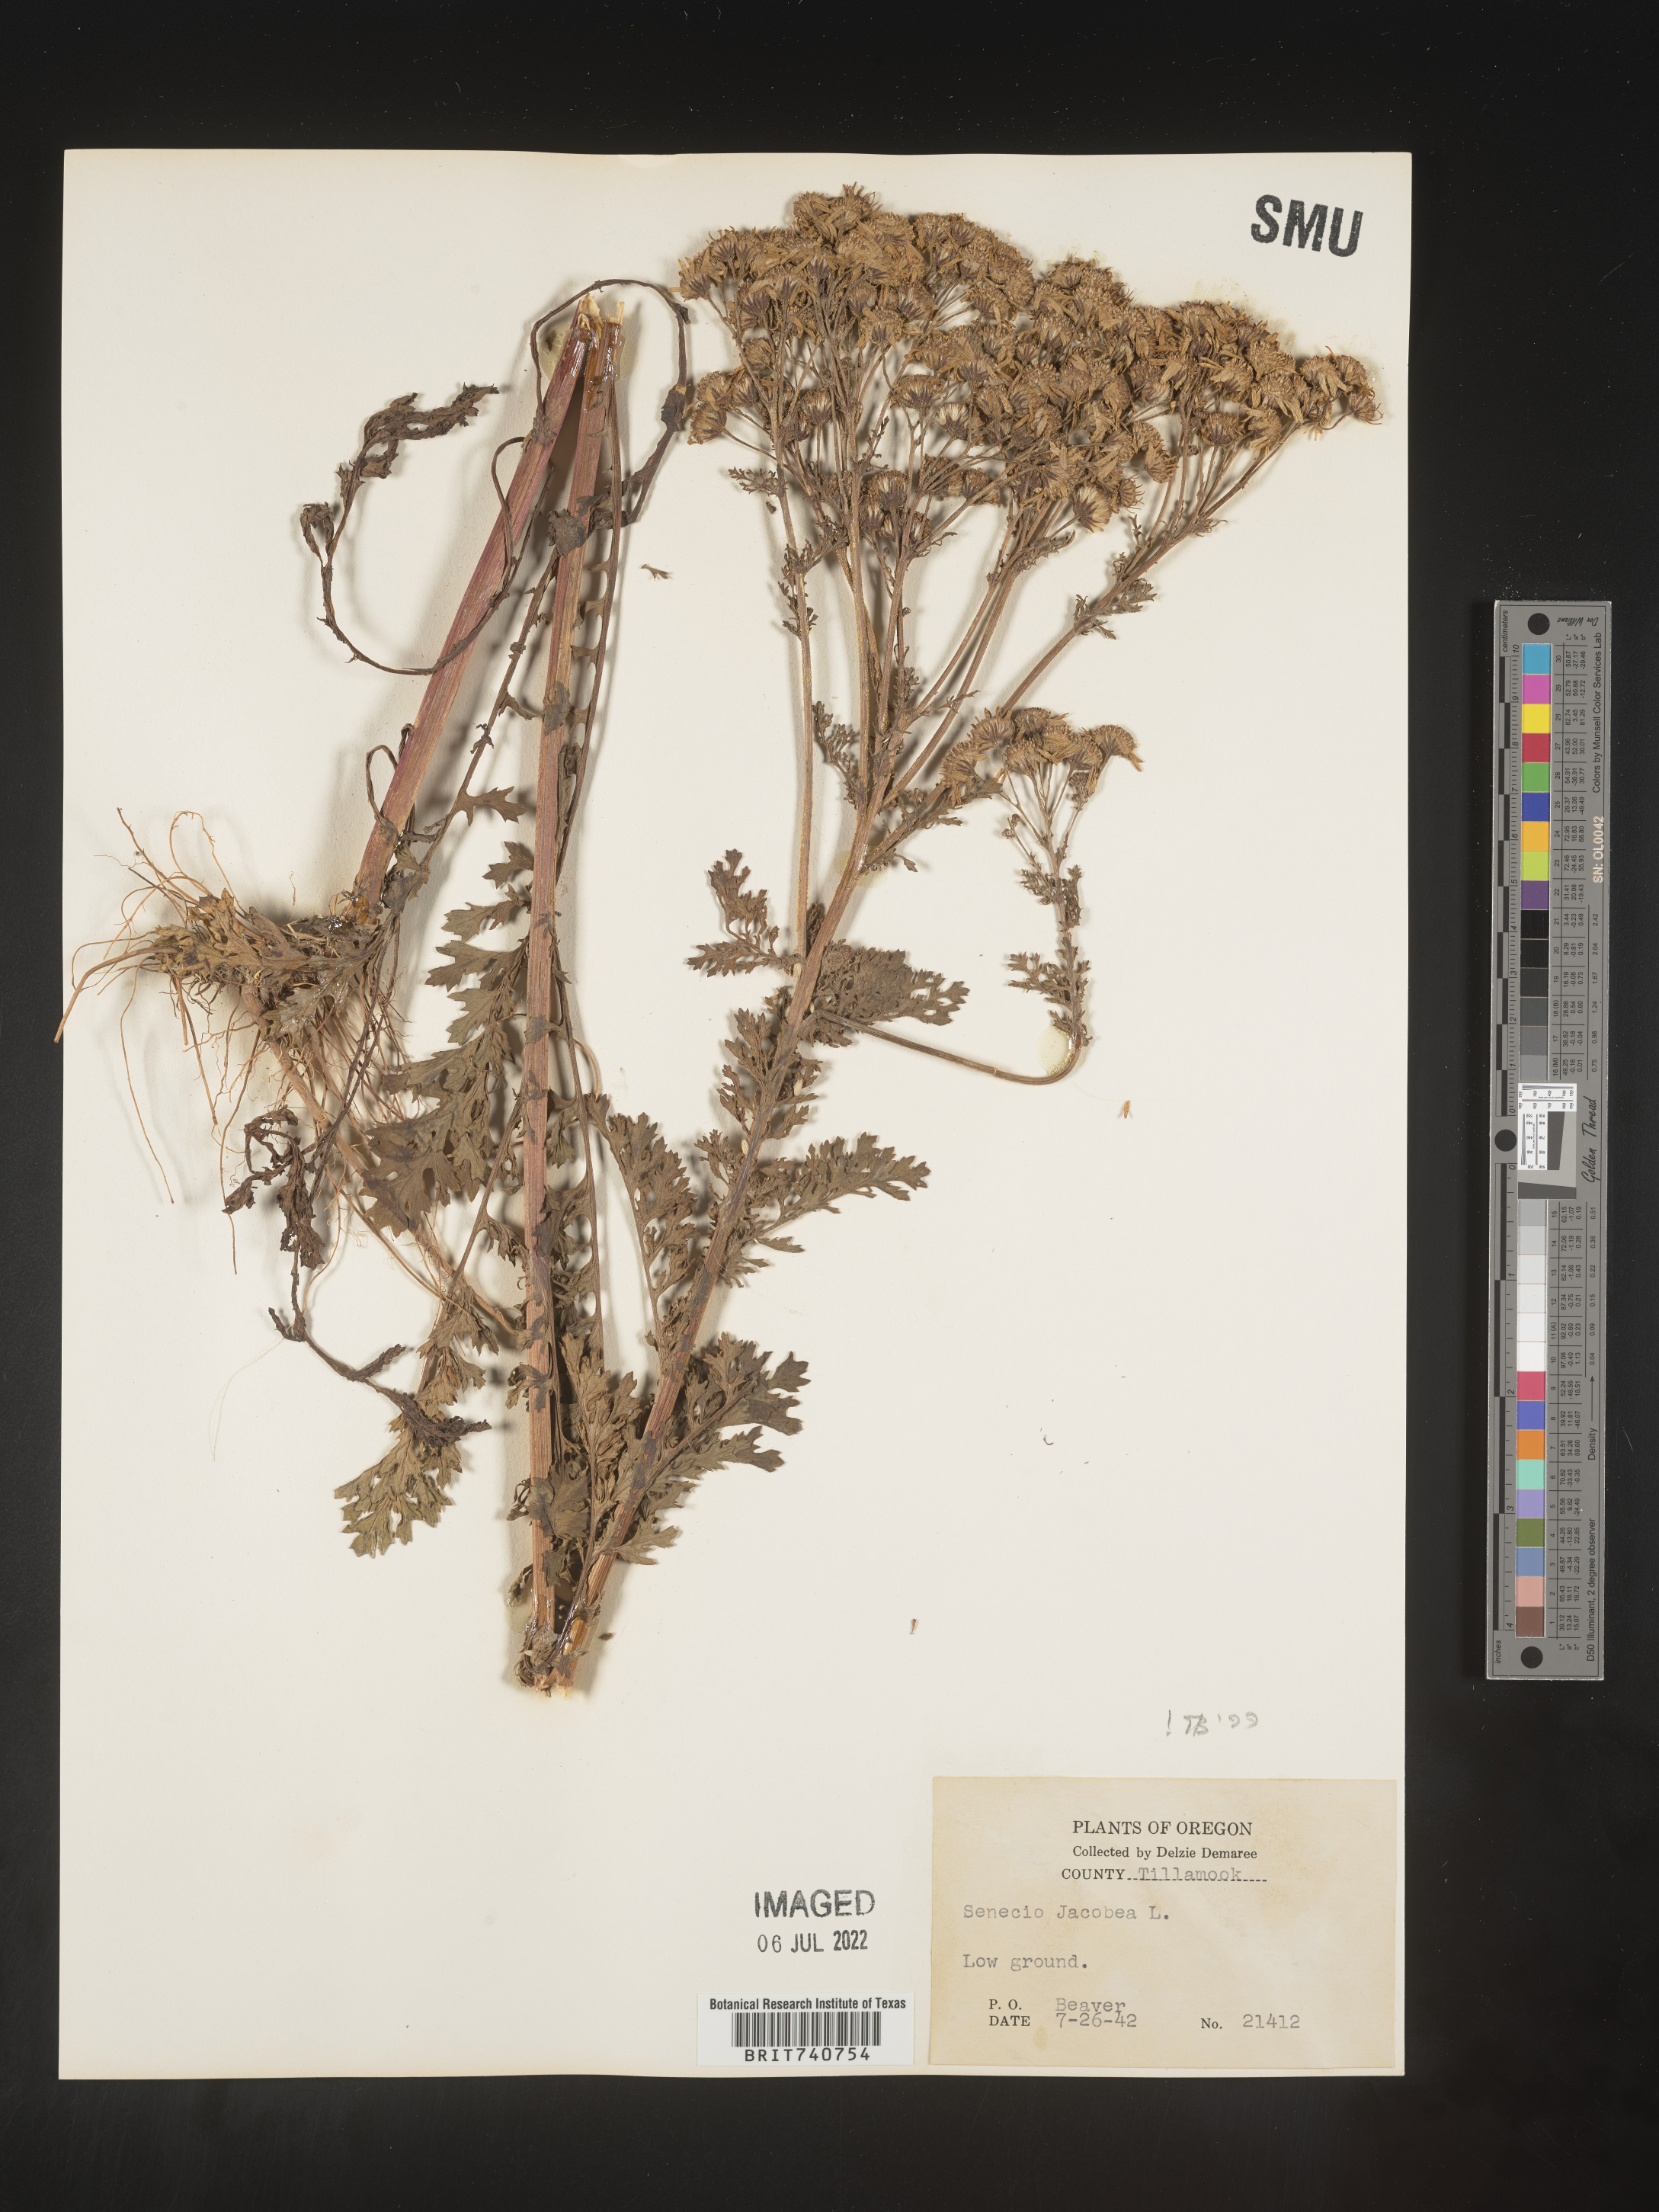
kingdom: Plantae
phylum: Tracheophyta
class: Magnoliopsida
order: Asterales
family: Asteraceae
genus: Jacobaea
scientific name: Jacobaea vulgaris
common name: Stinking willie
